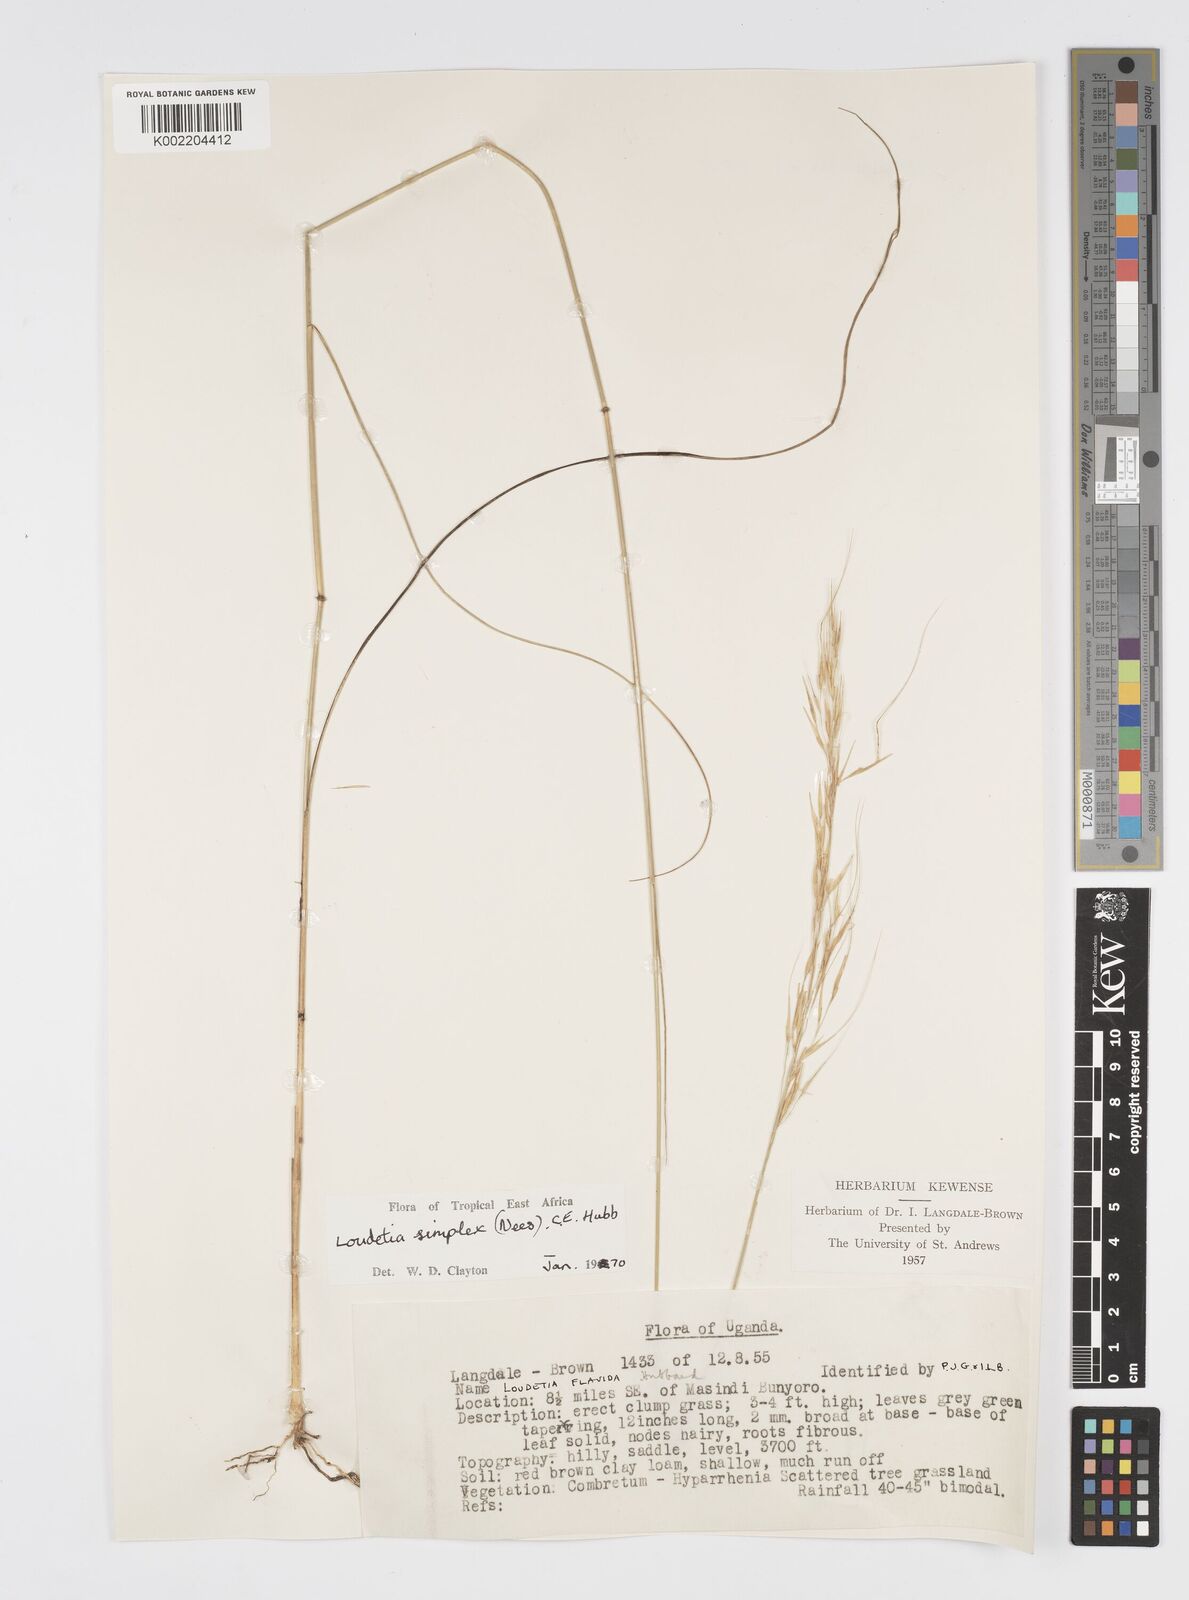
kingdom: Plantae
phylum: Tracheophyta
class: Liliopsida
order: Poales
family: Poaceae
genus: Loudetia
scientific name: Loudetia simplex
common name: Common russet grass
